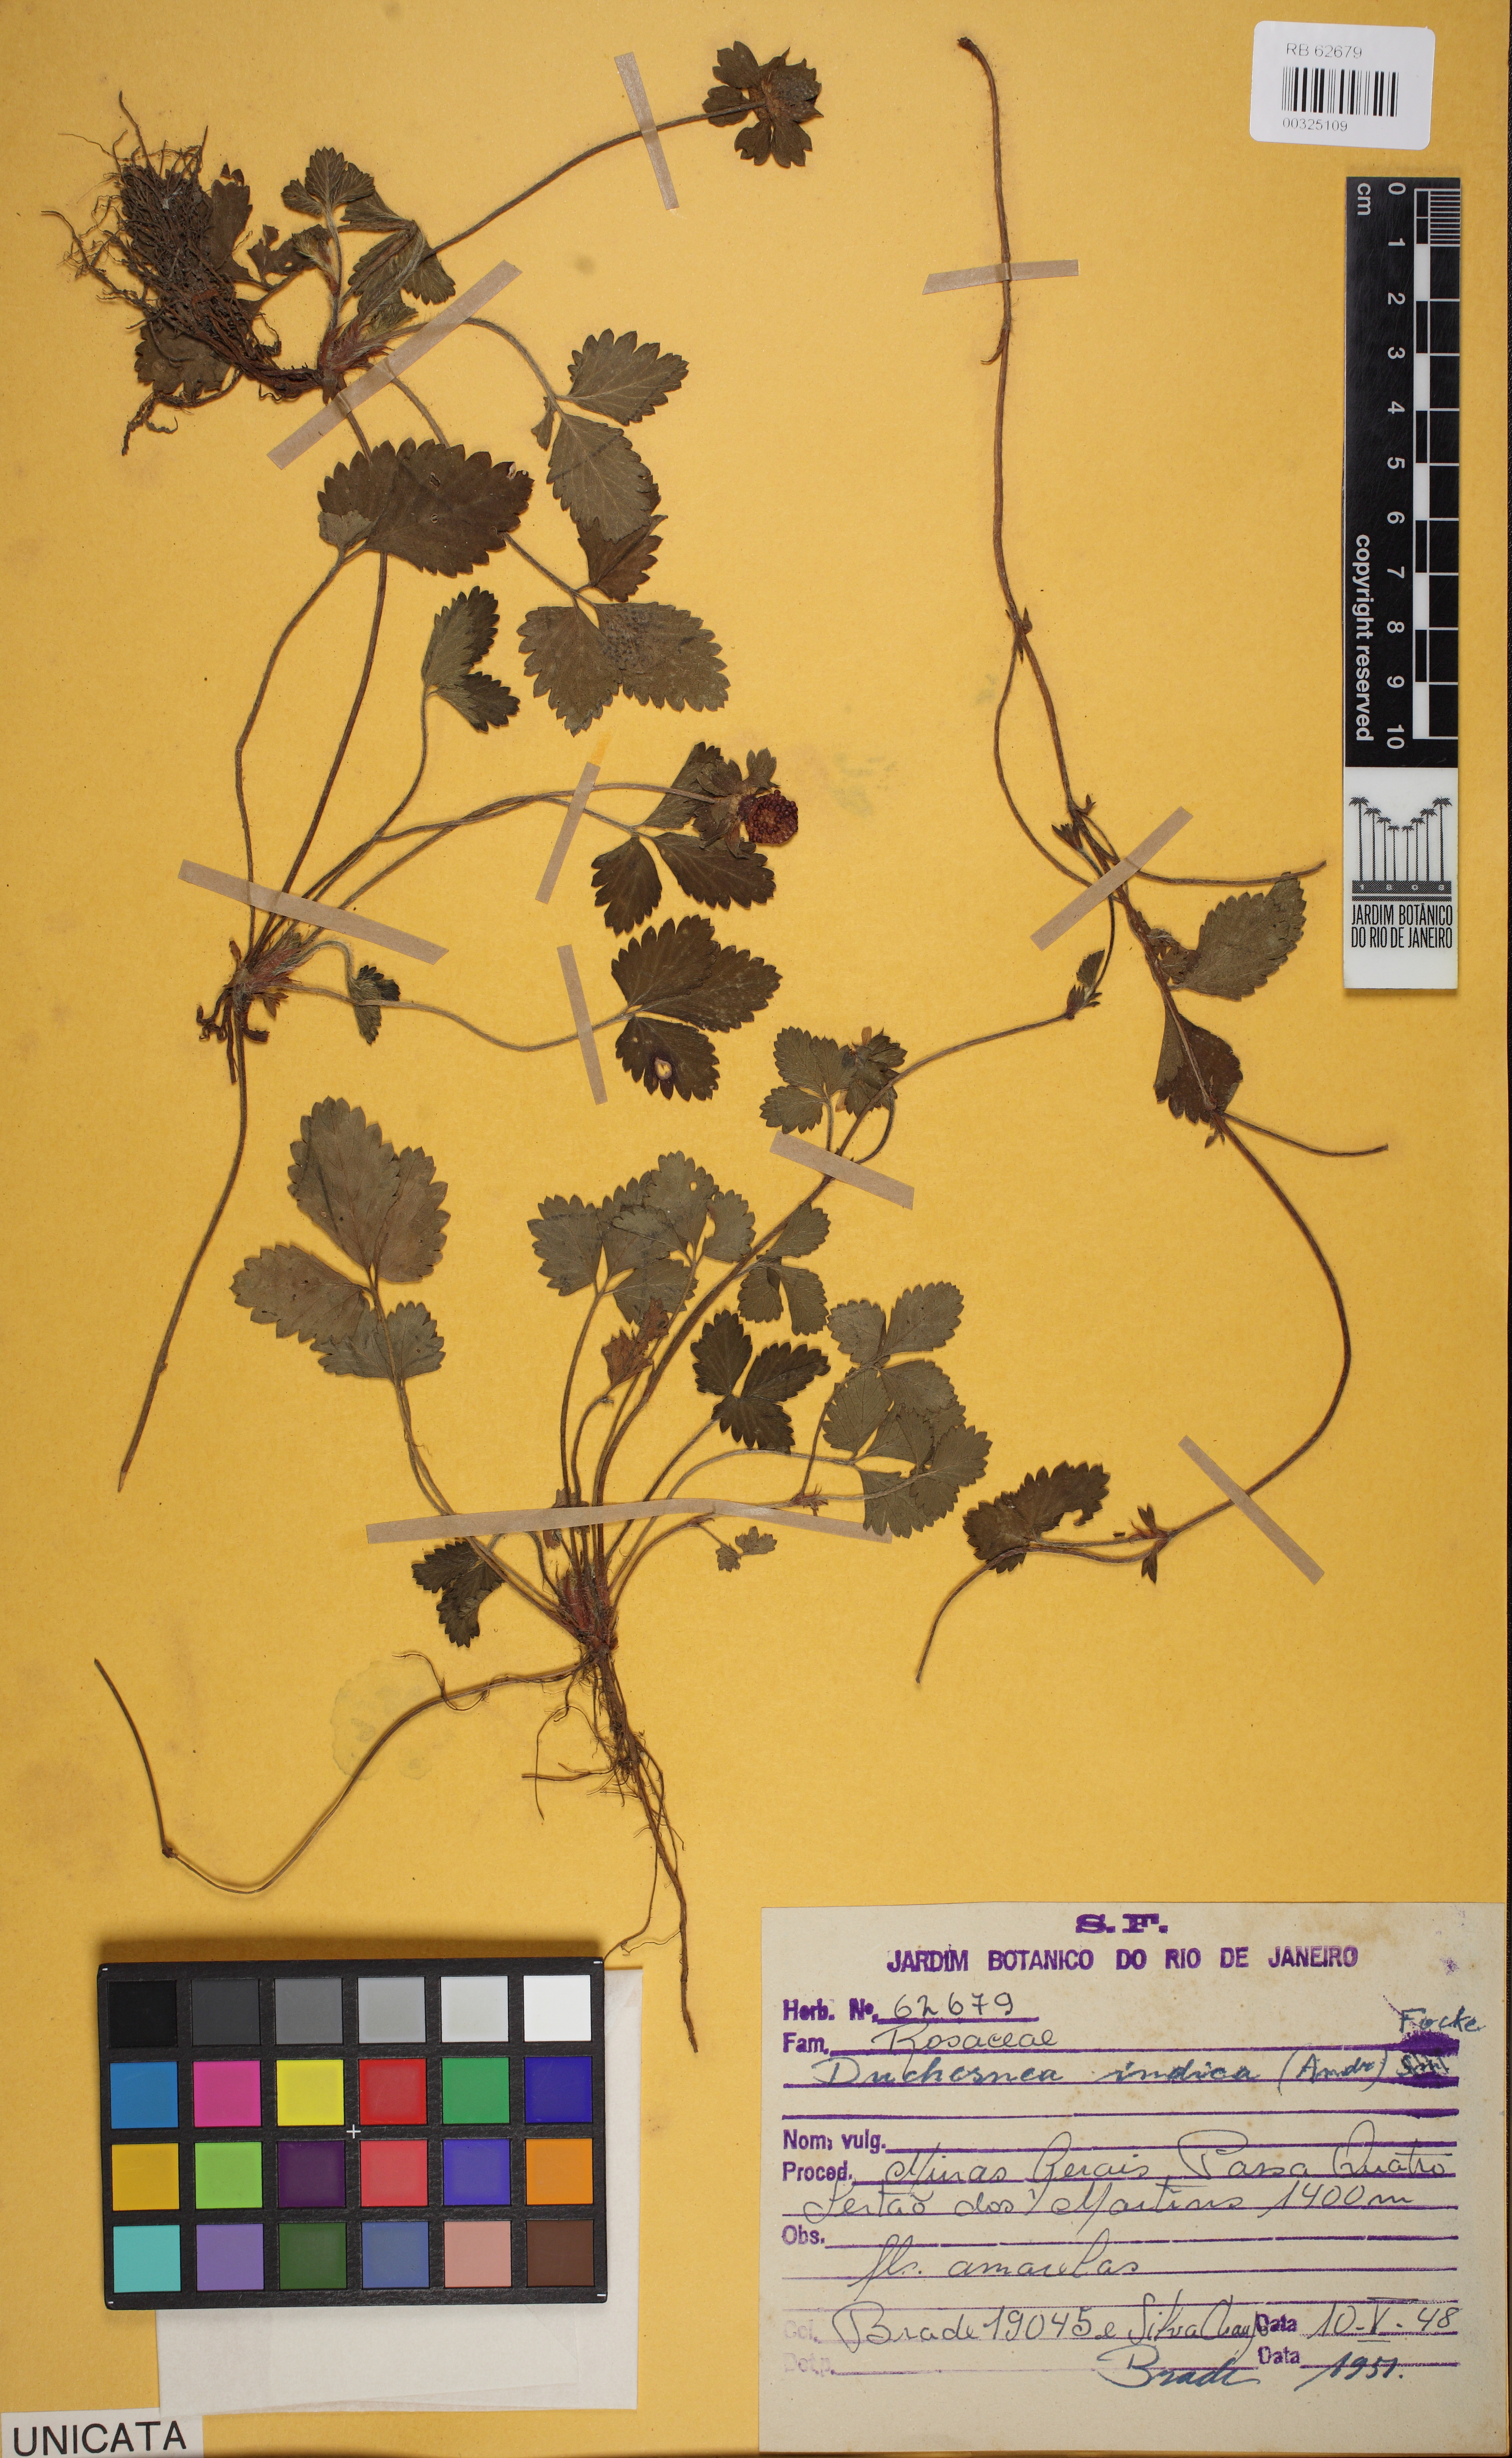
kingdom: Plantae
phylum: Tracheophyta
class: Magnoliopsida
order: Rosales
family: Rosaceae
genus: Potentilla
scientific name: Potentilla indica
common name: Yellow-flowered strawberry
